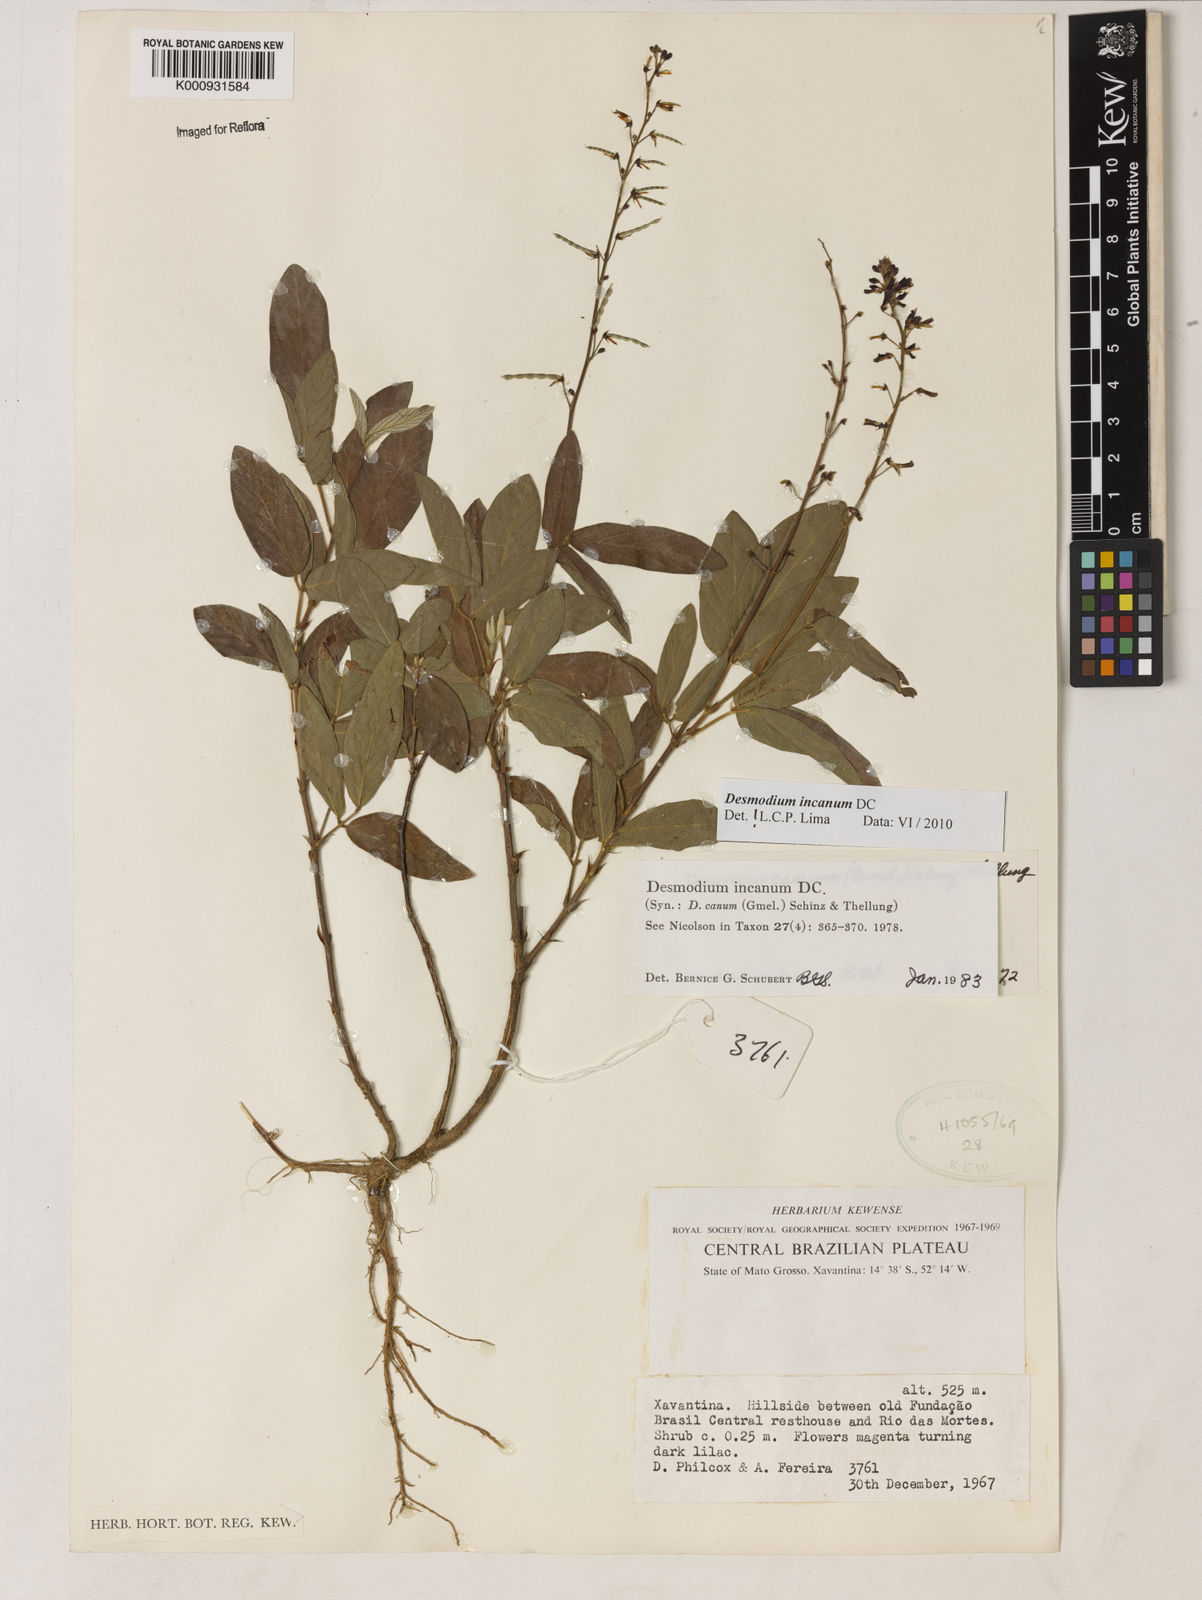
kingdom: Plantae
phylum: Tracheophyta
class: Magnoliopsida
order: Fabales
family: Fabaceae
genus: Desmodium
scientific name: Desmodium incanum
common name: Tickclover
